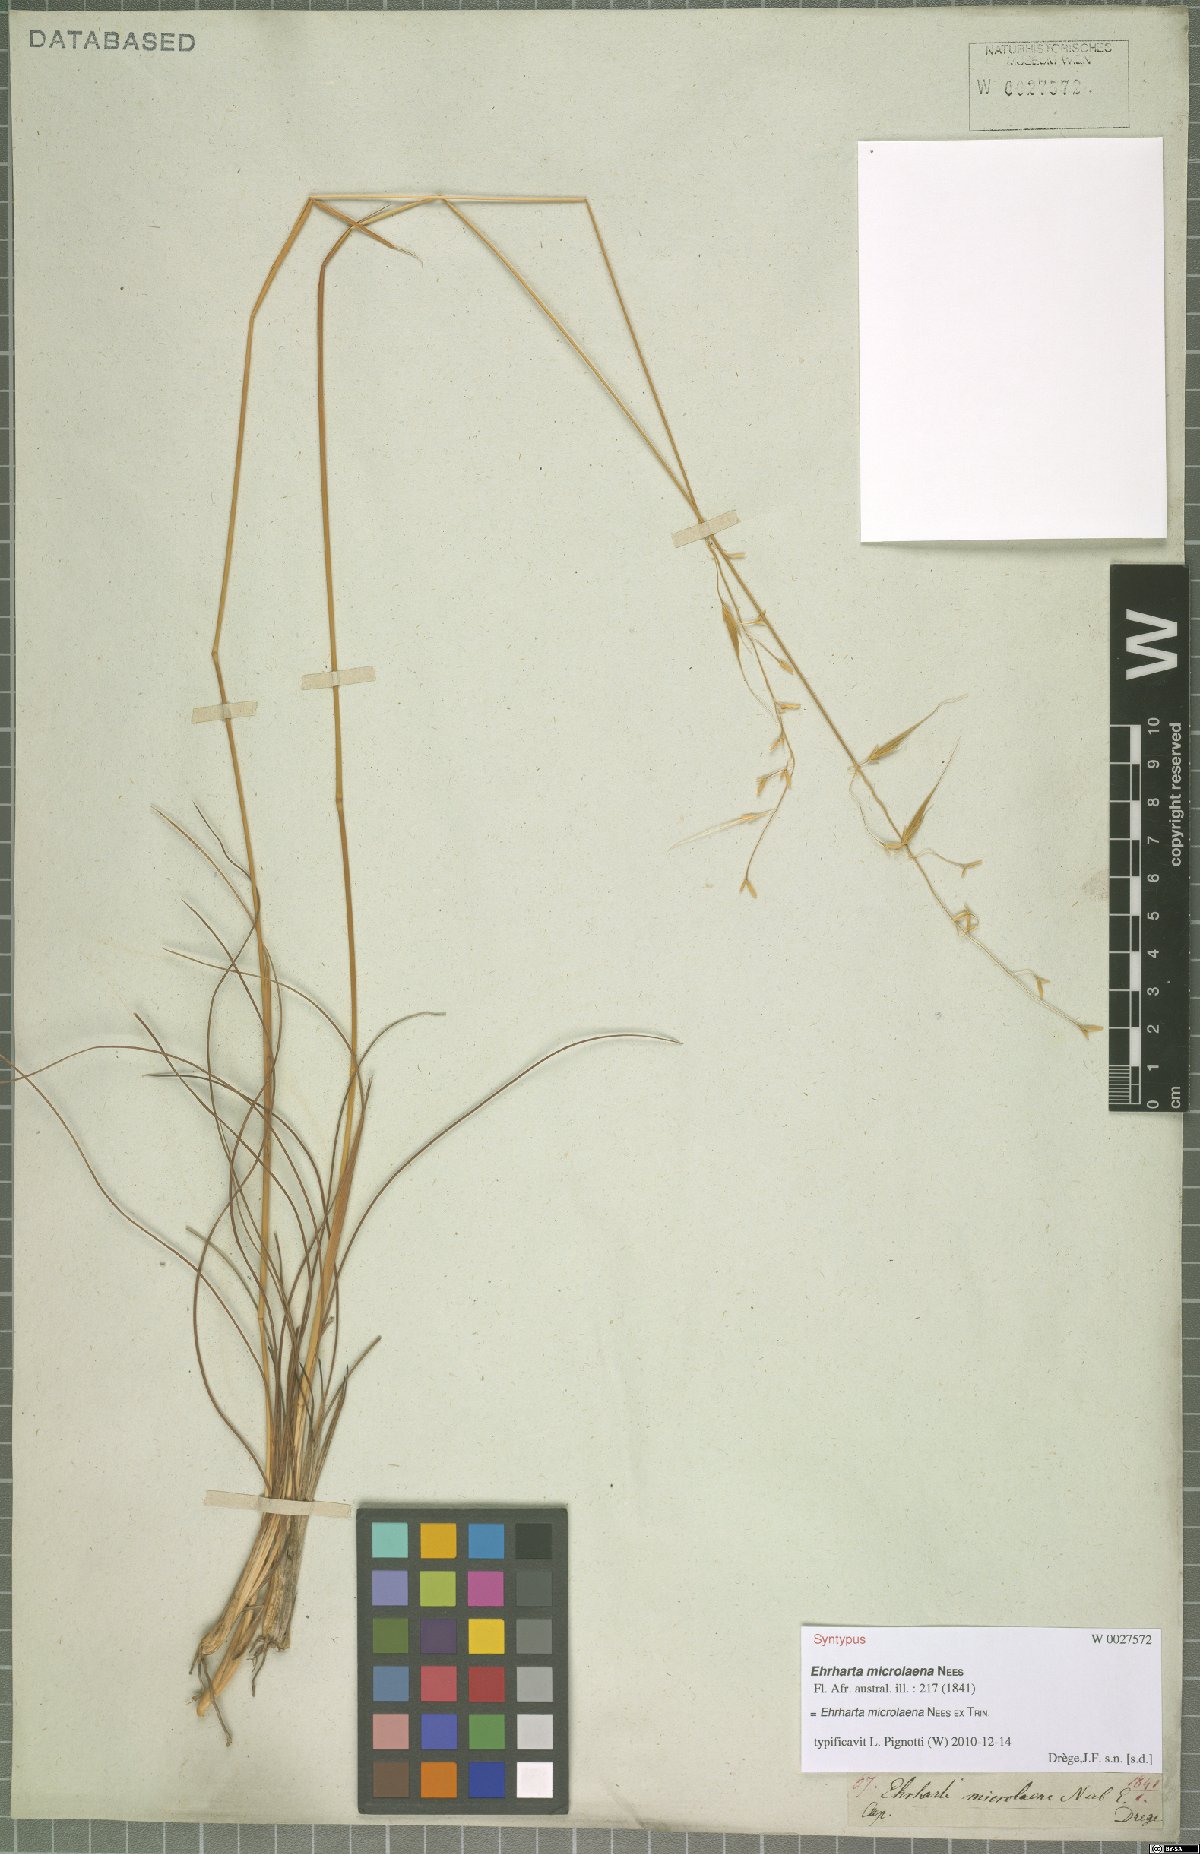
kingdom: Plantae
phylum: Tracheophyta
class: Liliopsida
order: Poales
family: Poaceae
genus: Ehrharta
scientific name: Ehrharta microlaena
